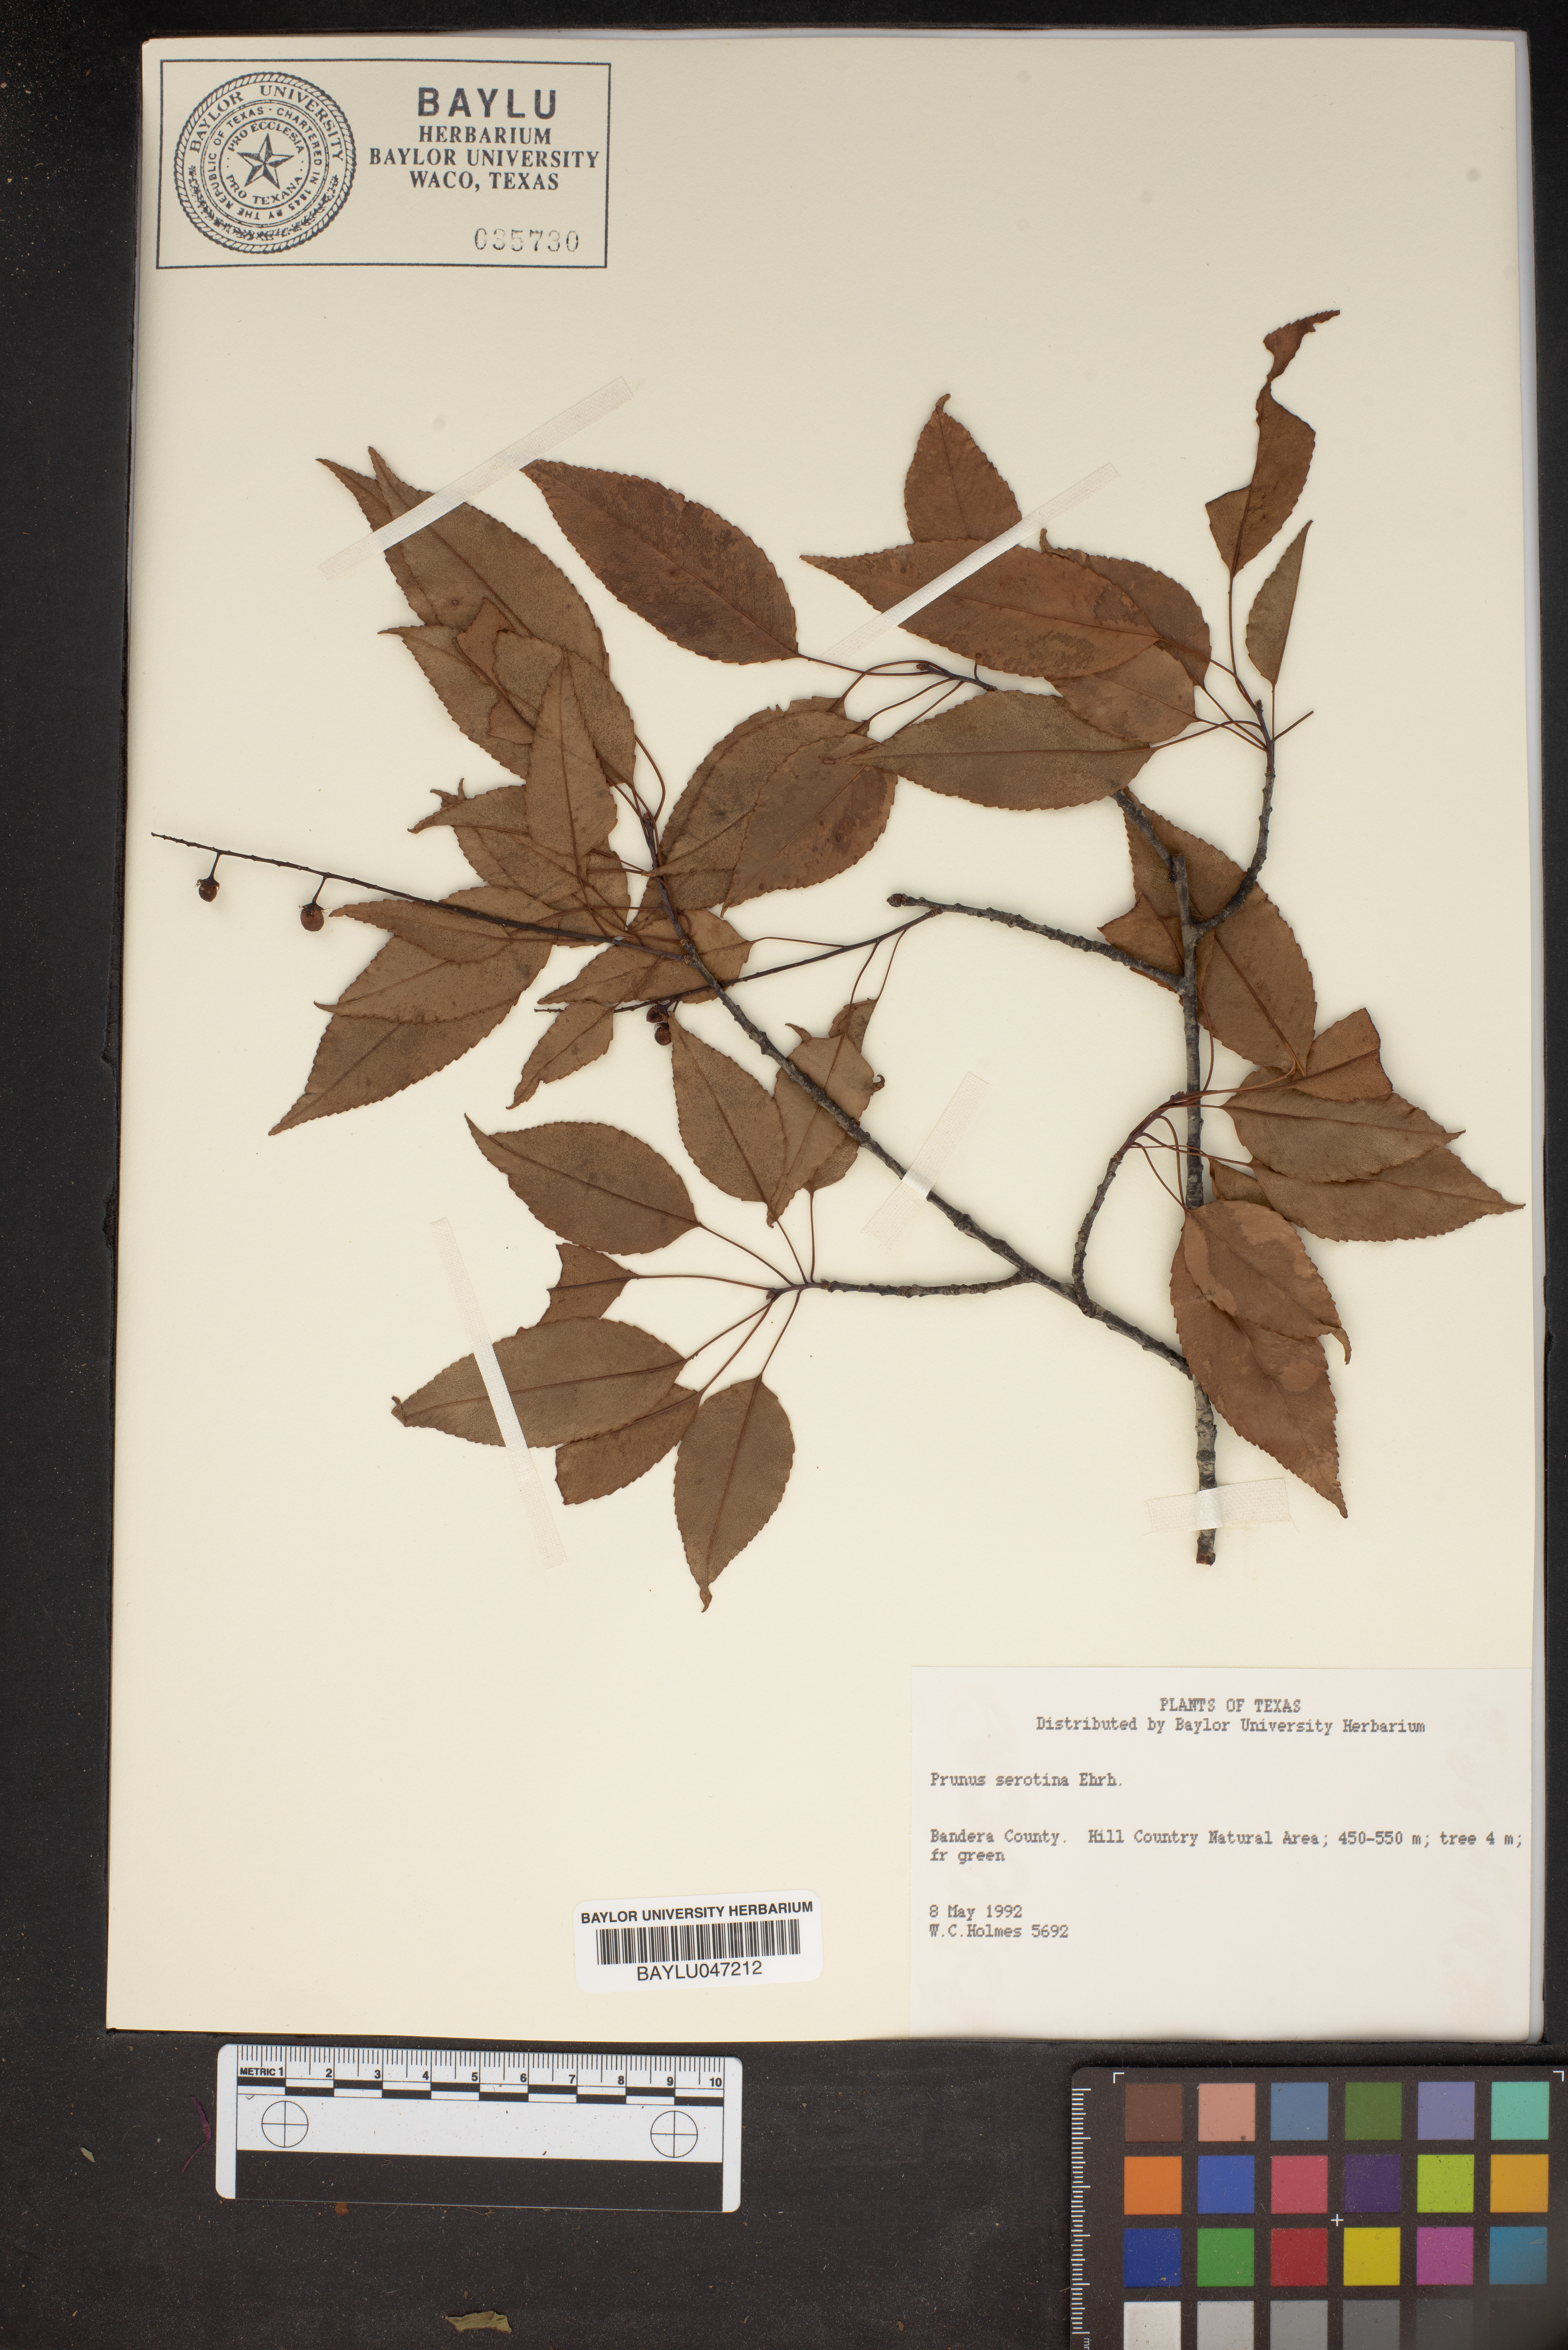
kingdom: Plantae
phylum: Tracheophyta
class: Magnoliopsida
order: Rosales
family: Rosaceae
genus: Prunus
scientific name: Prunus serotina
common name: Black cherry
